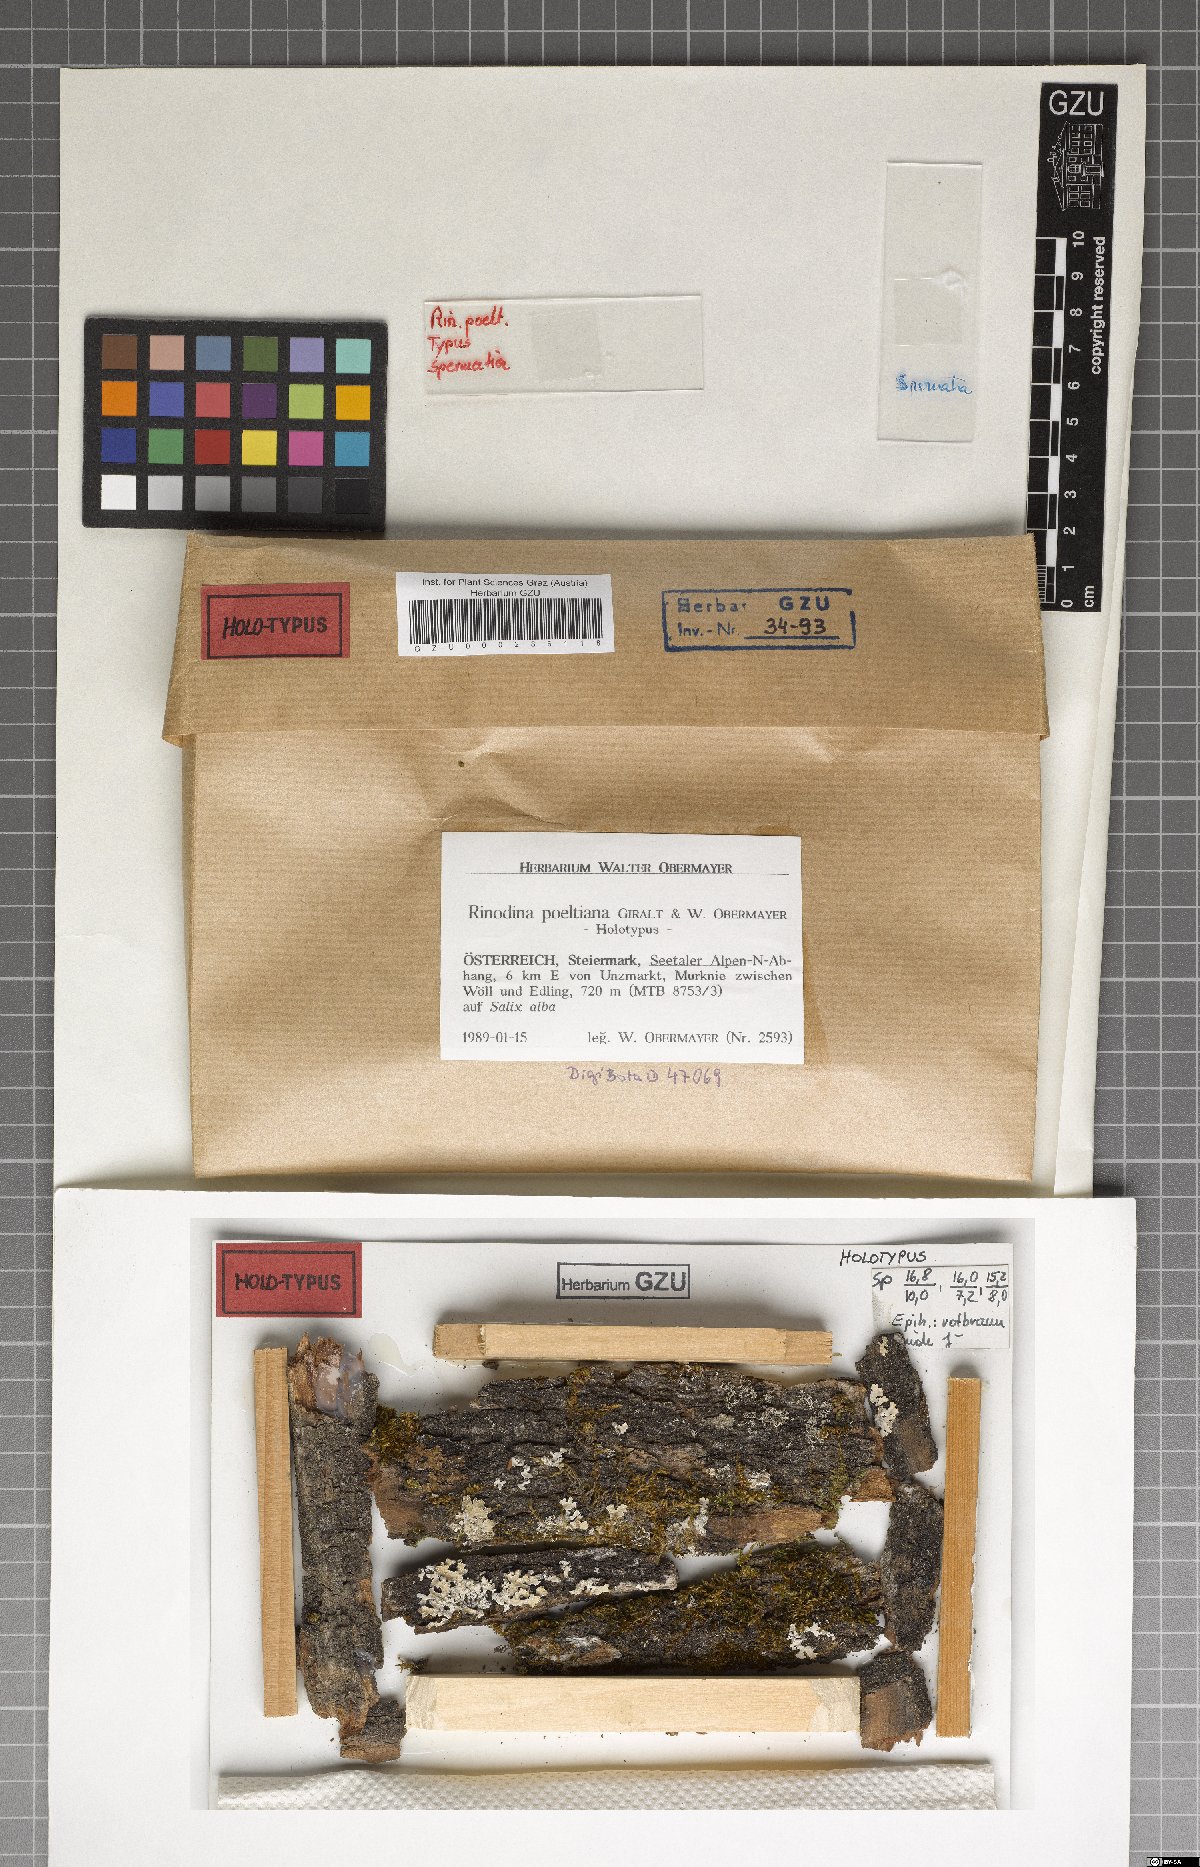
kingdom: Fungi
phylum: Ascomycota
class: Lecanoromycetes
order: Caliciales
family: Physciaceae
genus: Rinodina
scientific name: Rinodina poeltiana
